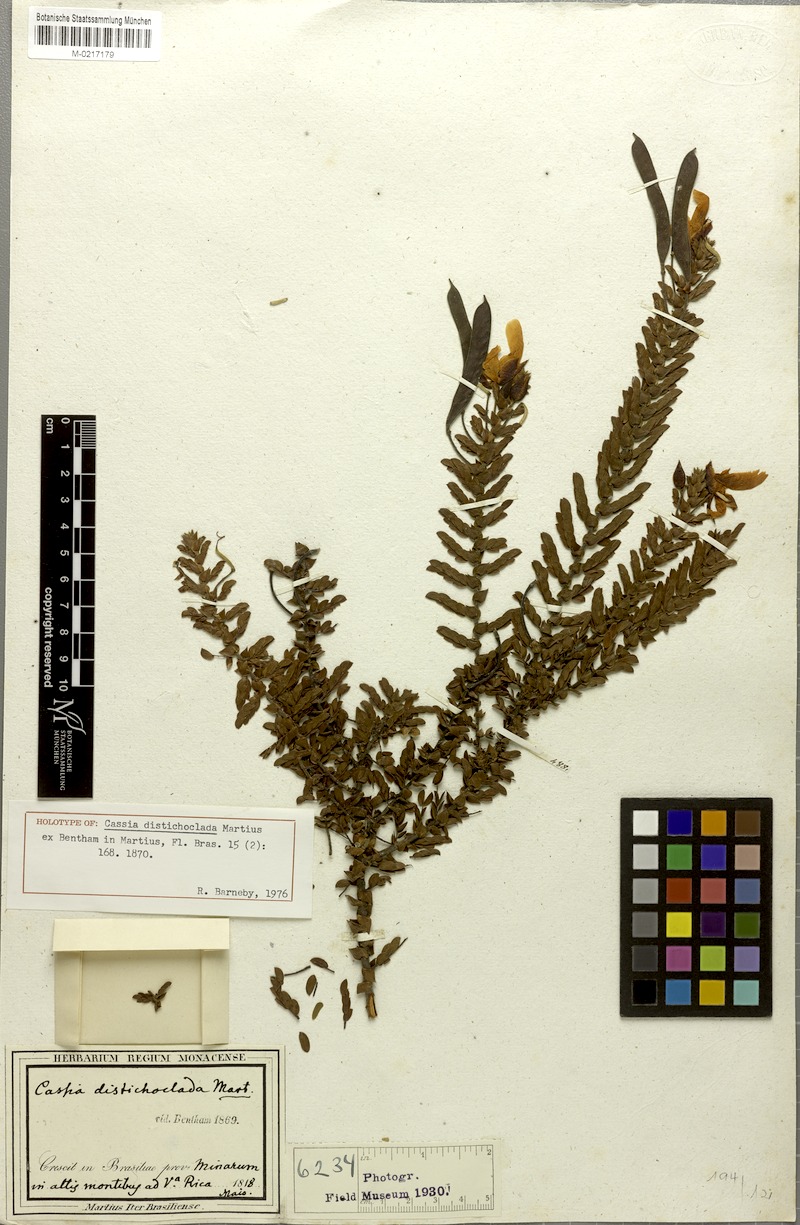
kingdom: Plantae
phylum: Tracheophyta
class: Magnoliopsida
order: Fabales
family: Fabaceae
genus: Chamaecrista
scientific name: Chamaecrista distichoclada
